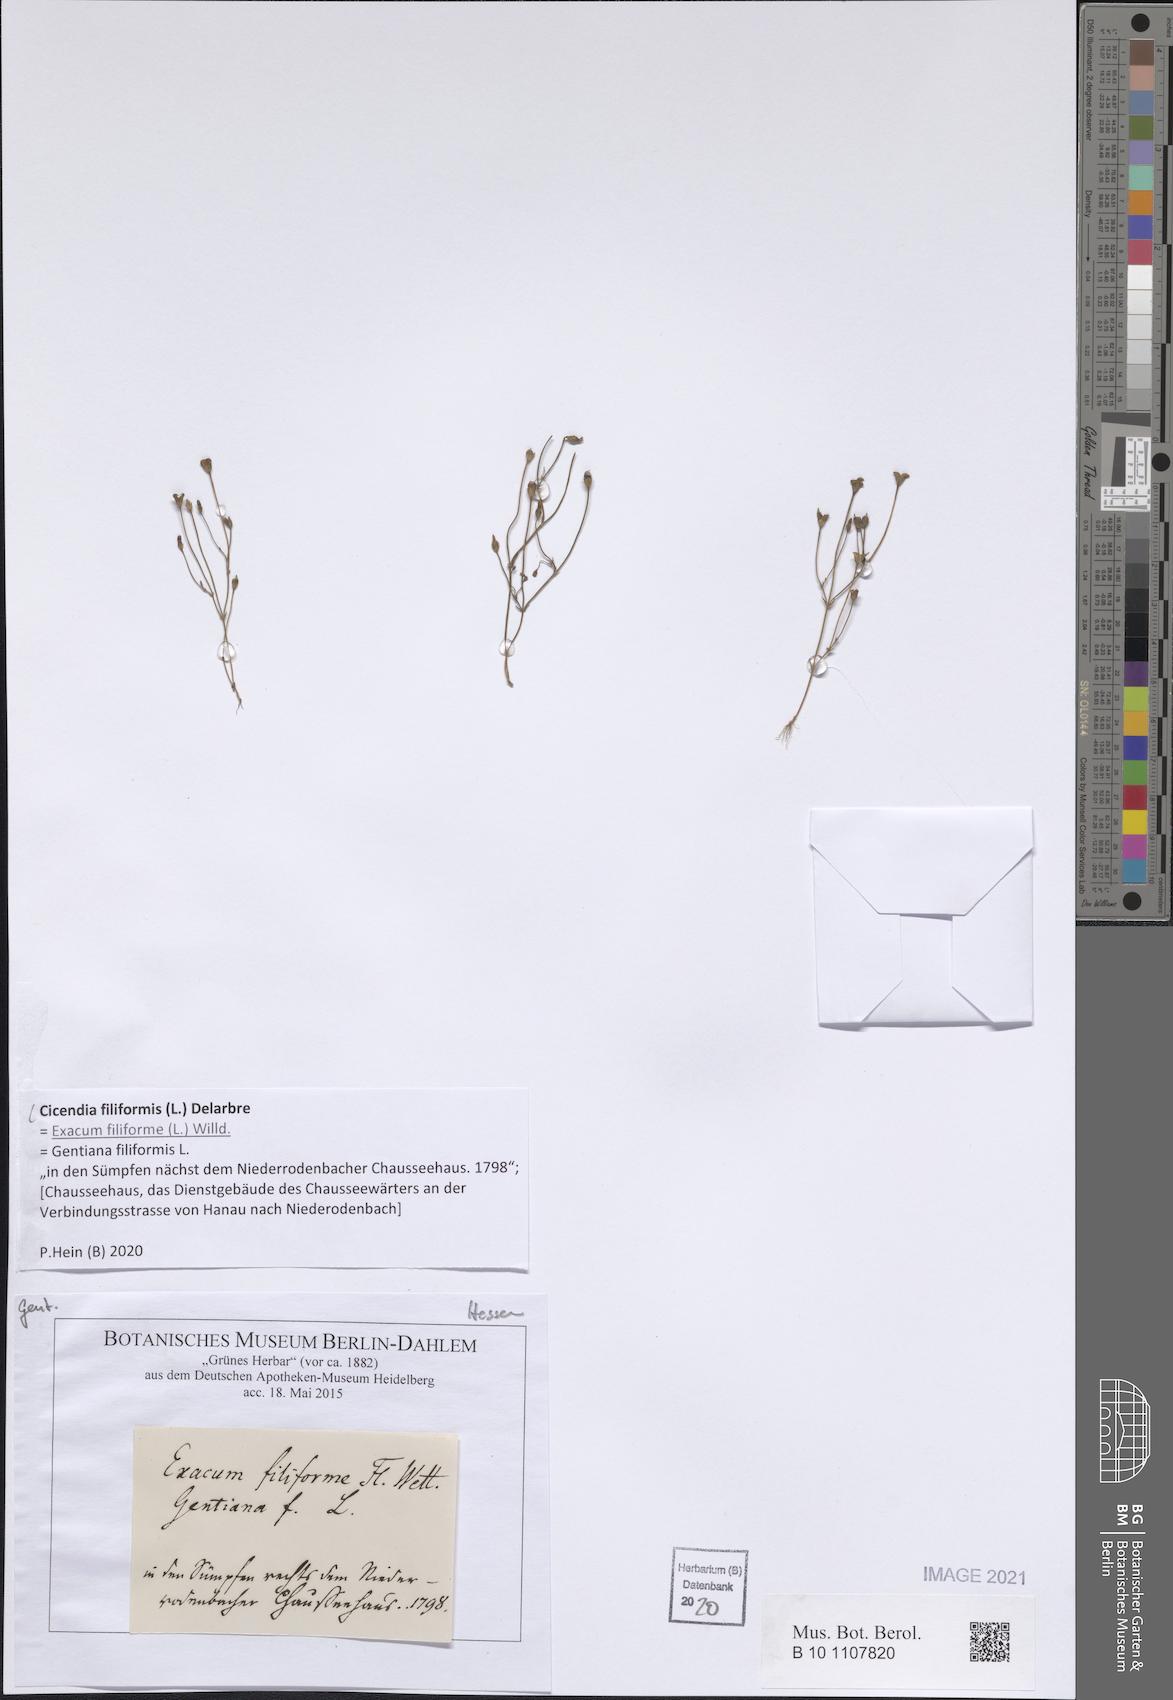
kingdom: Plantae
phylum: Tracheophyta
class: Magnoliopsida
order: Gentianales
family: Gentianaceae
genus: Cicendia
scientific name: Cicendia filiformis
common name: Yellow centaury
